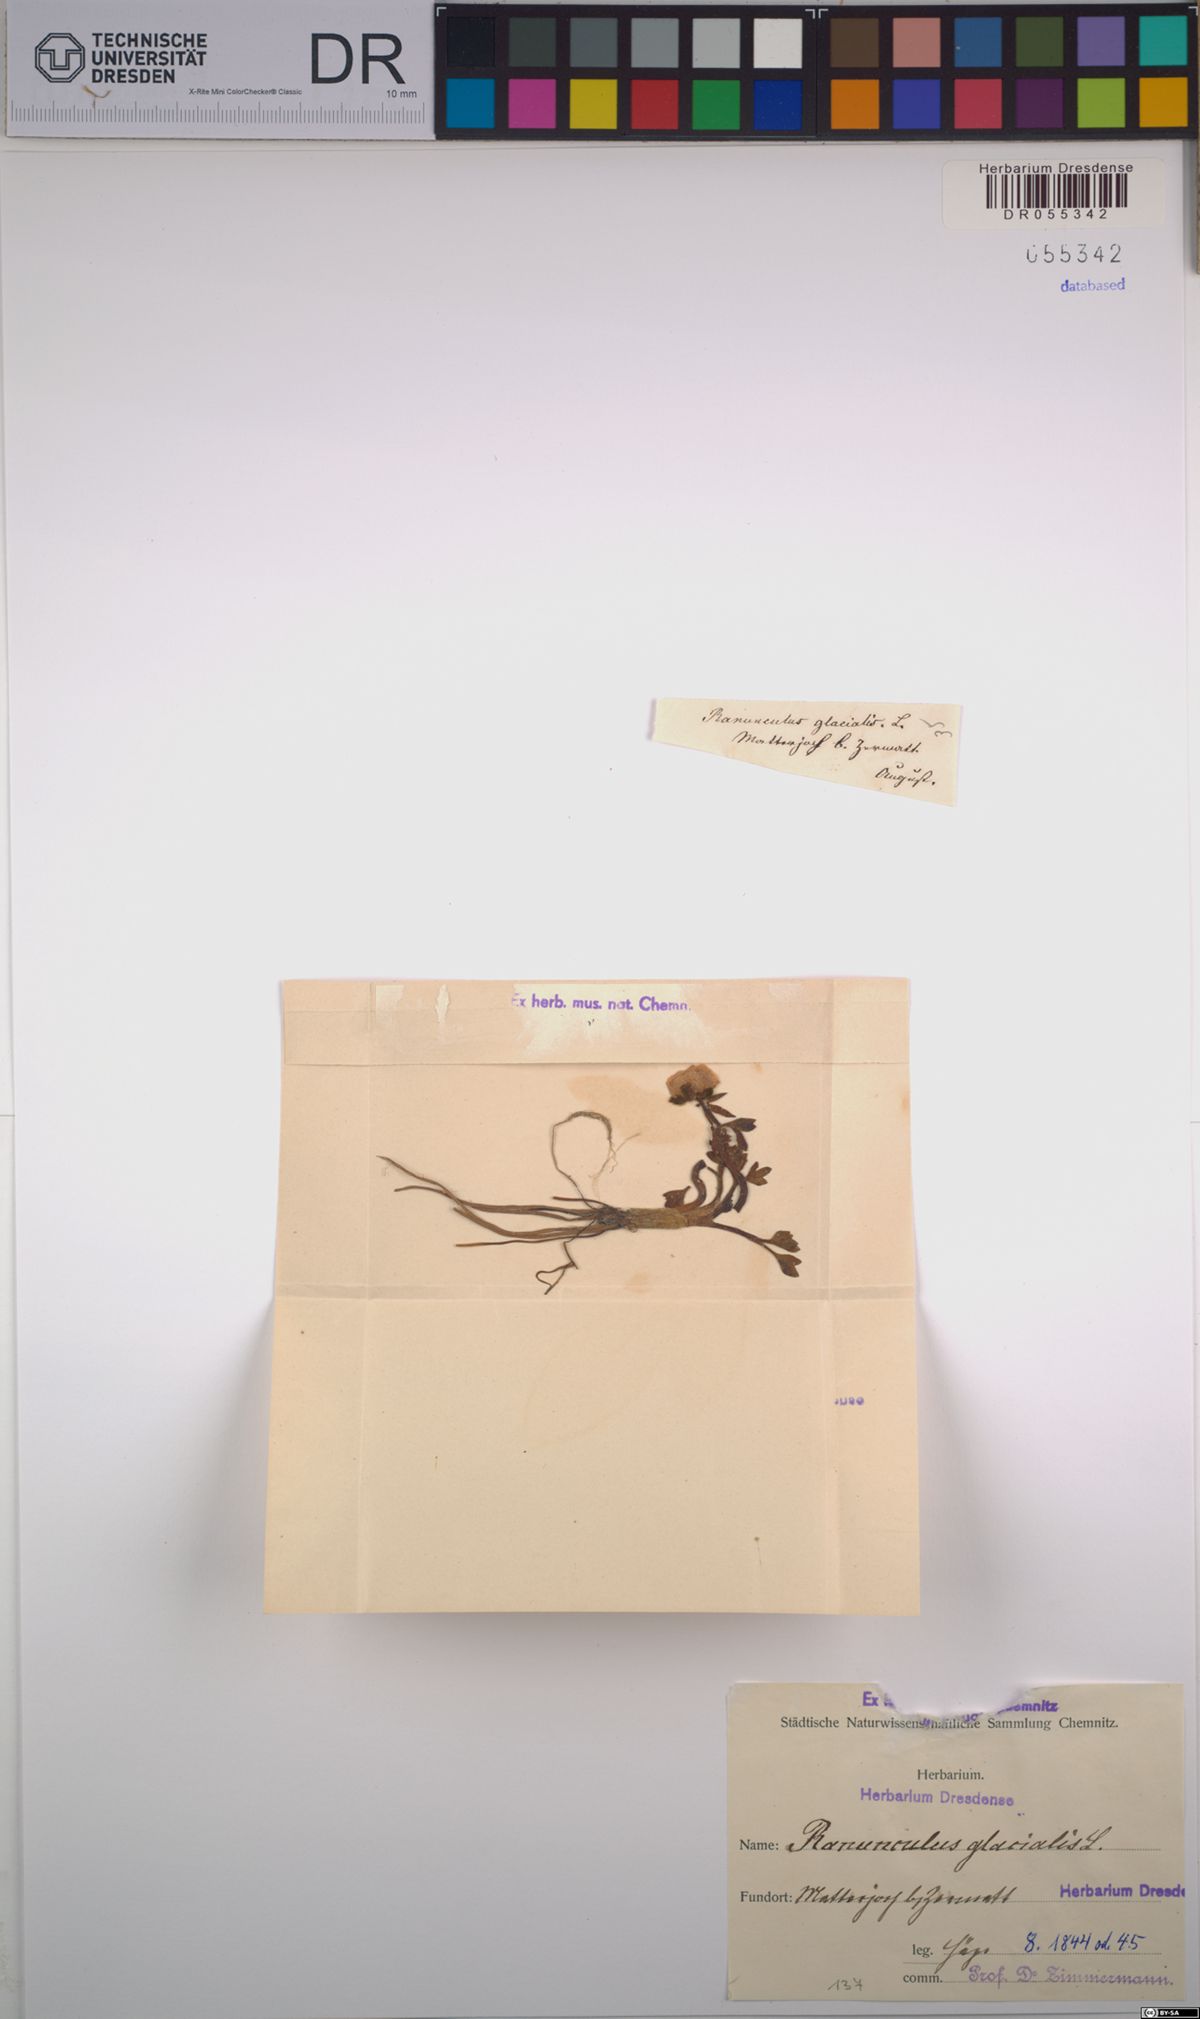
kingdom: Plantae
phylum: Tracheophyta
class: Magnoliopsida
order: Ranunculales
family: Ranunculaceae
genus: Ranunculus
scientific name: Ranunculus glacialis
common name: Glacier buttercup
